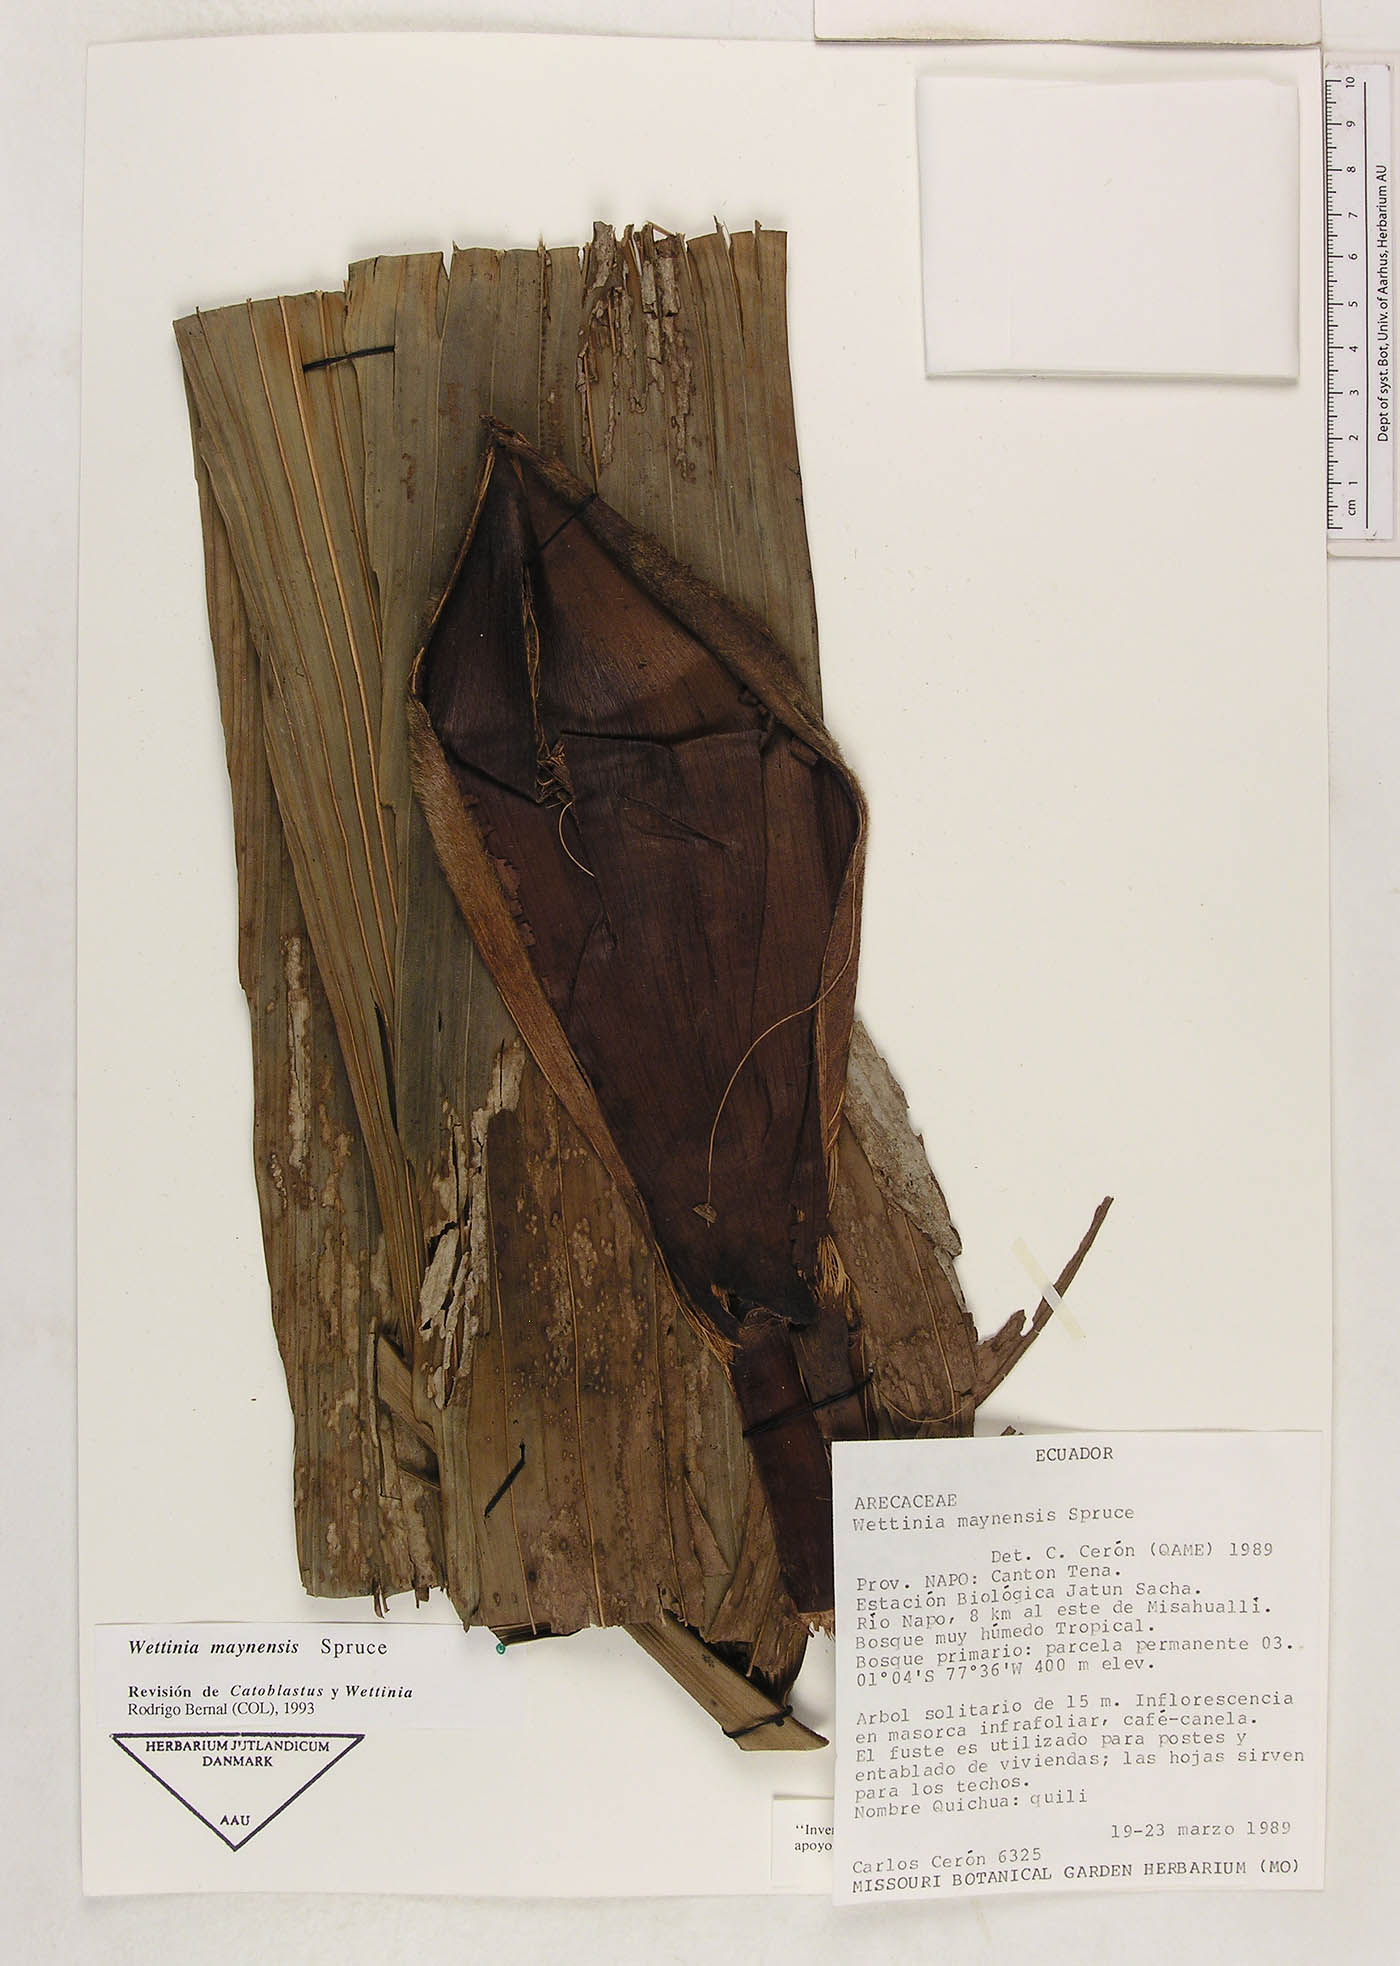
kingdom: Plantae
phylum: Tracheophyta
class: Liliopsida
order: Arecales
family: Arecaceae
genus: Wettinia
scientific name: Wettinia maynensis
